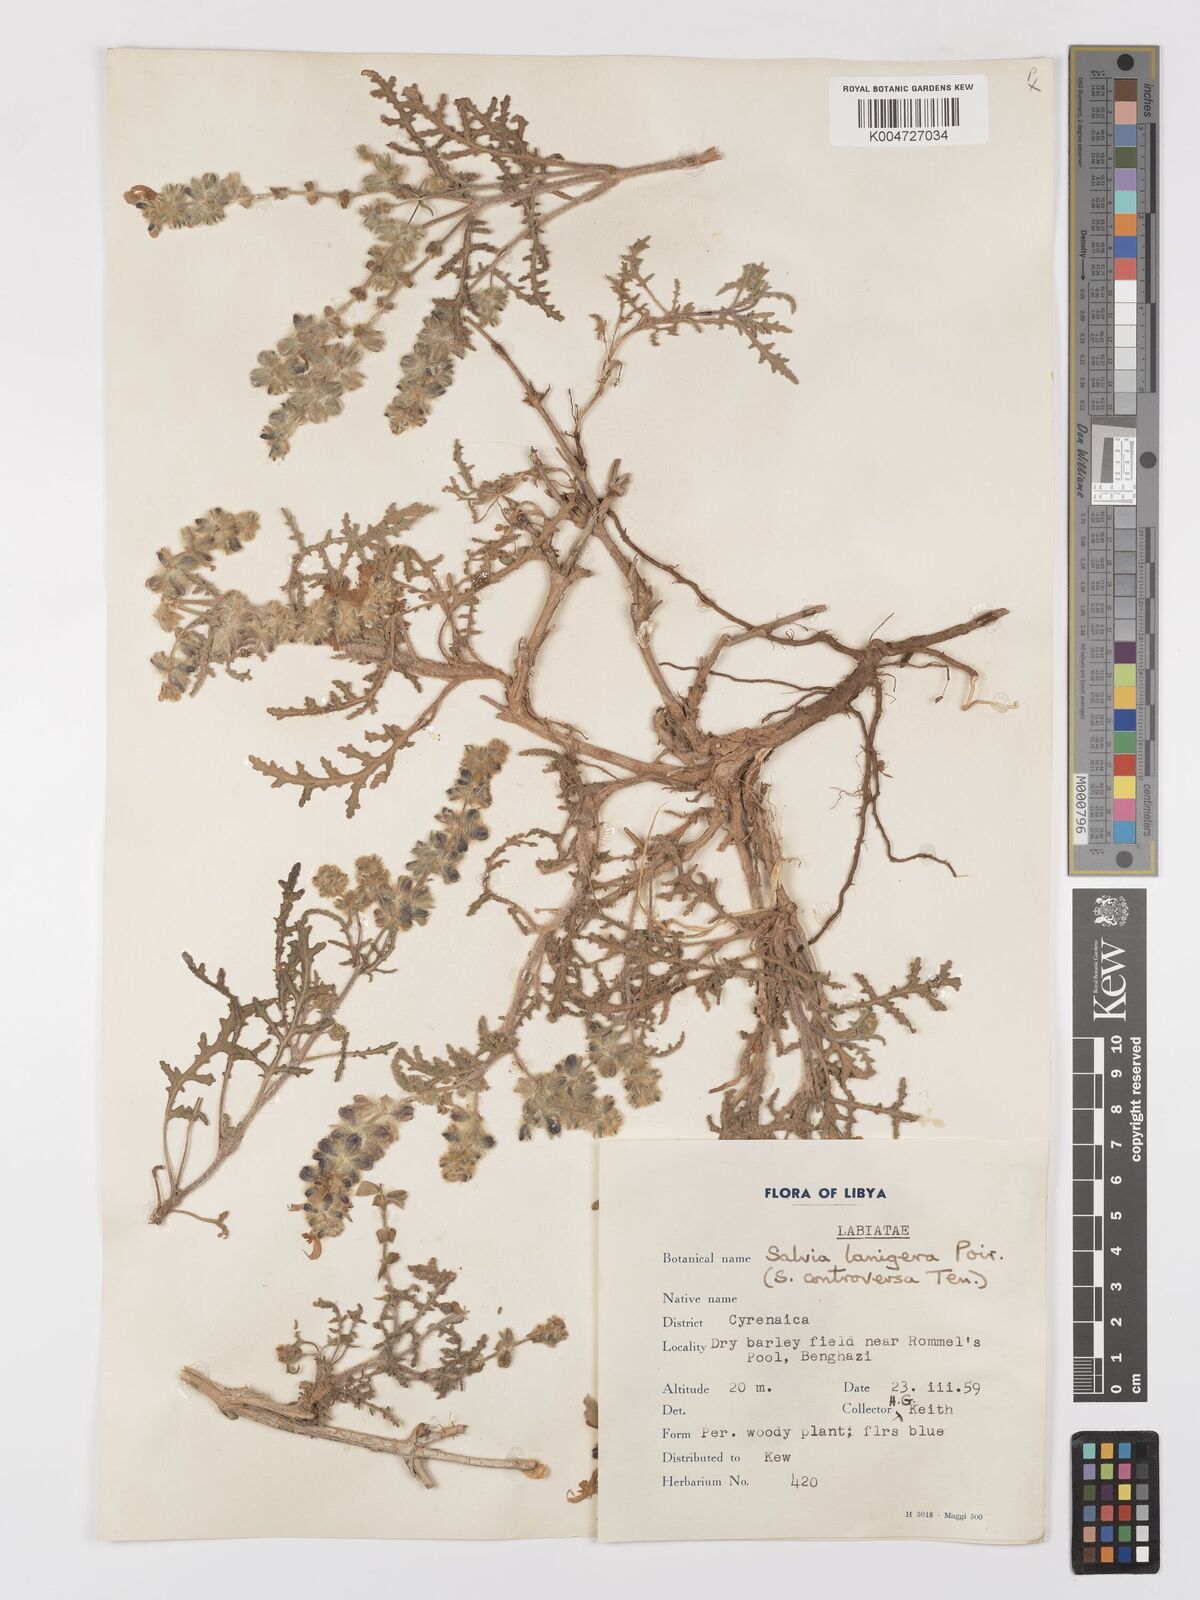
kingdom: Plantae
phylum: Tracheophyta
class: Magnoliopsida
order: Lamiales
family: Lamiaceae
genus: Salvia
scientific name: Salvia lanigera
